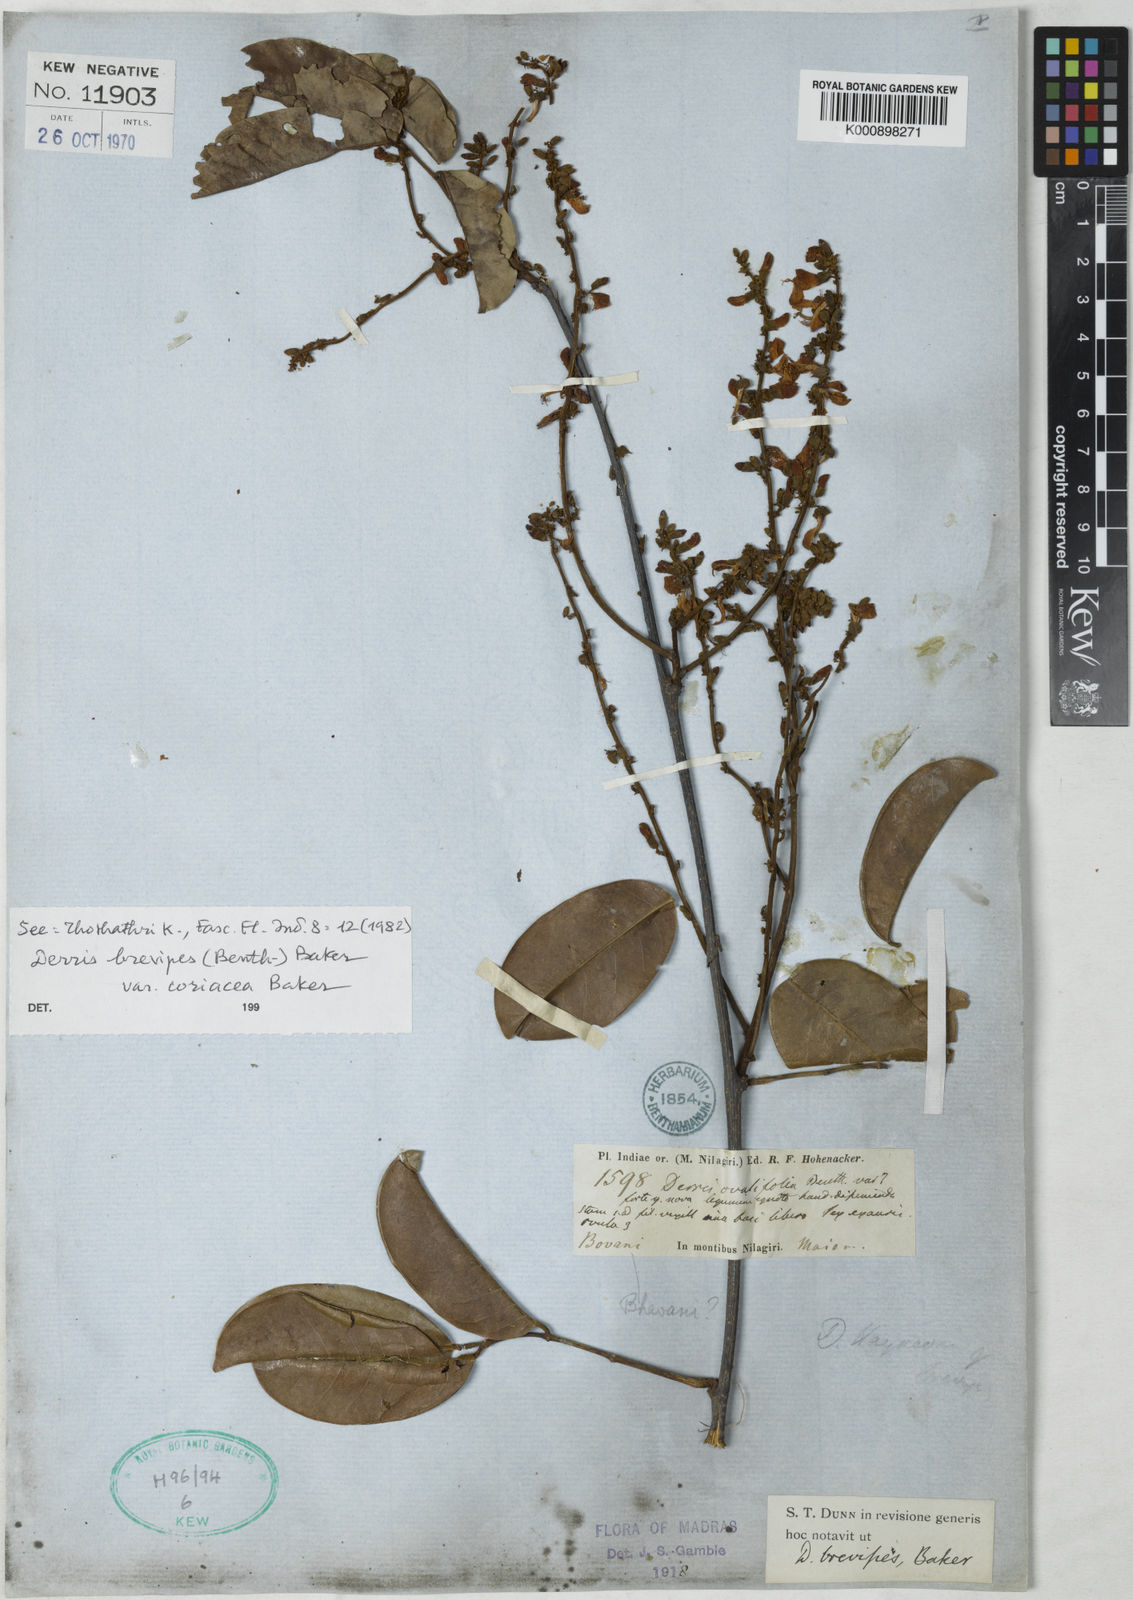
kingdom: Plantae
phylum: Tracheophyta
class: Magnoliopsida
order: Fabales
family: Fabaceae
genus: Derris
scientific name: Derris
